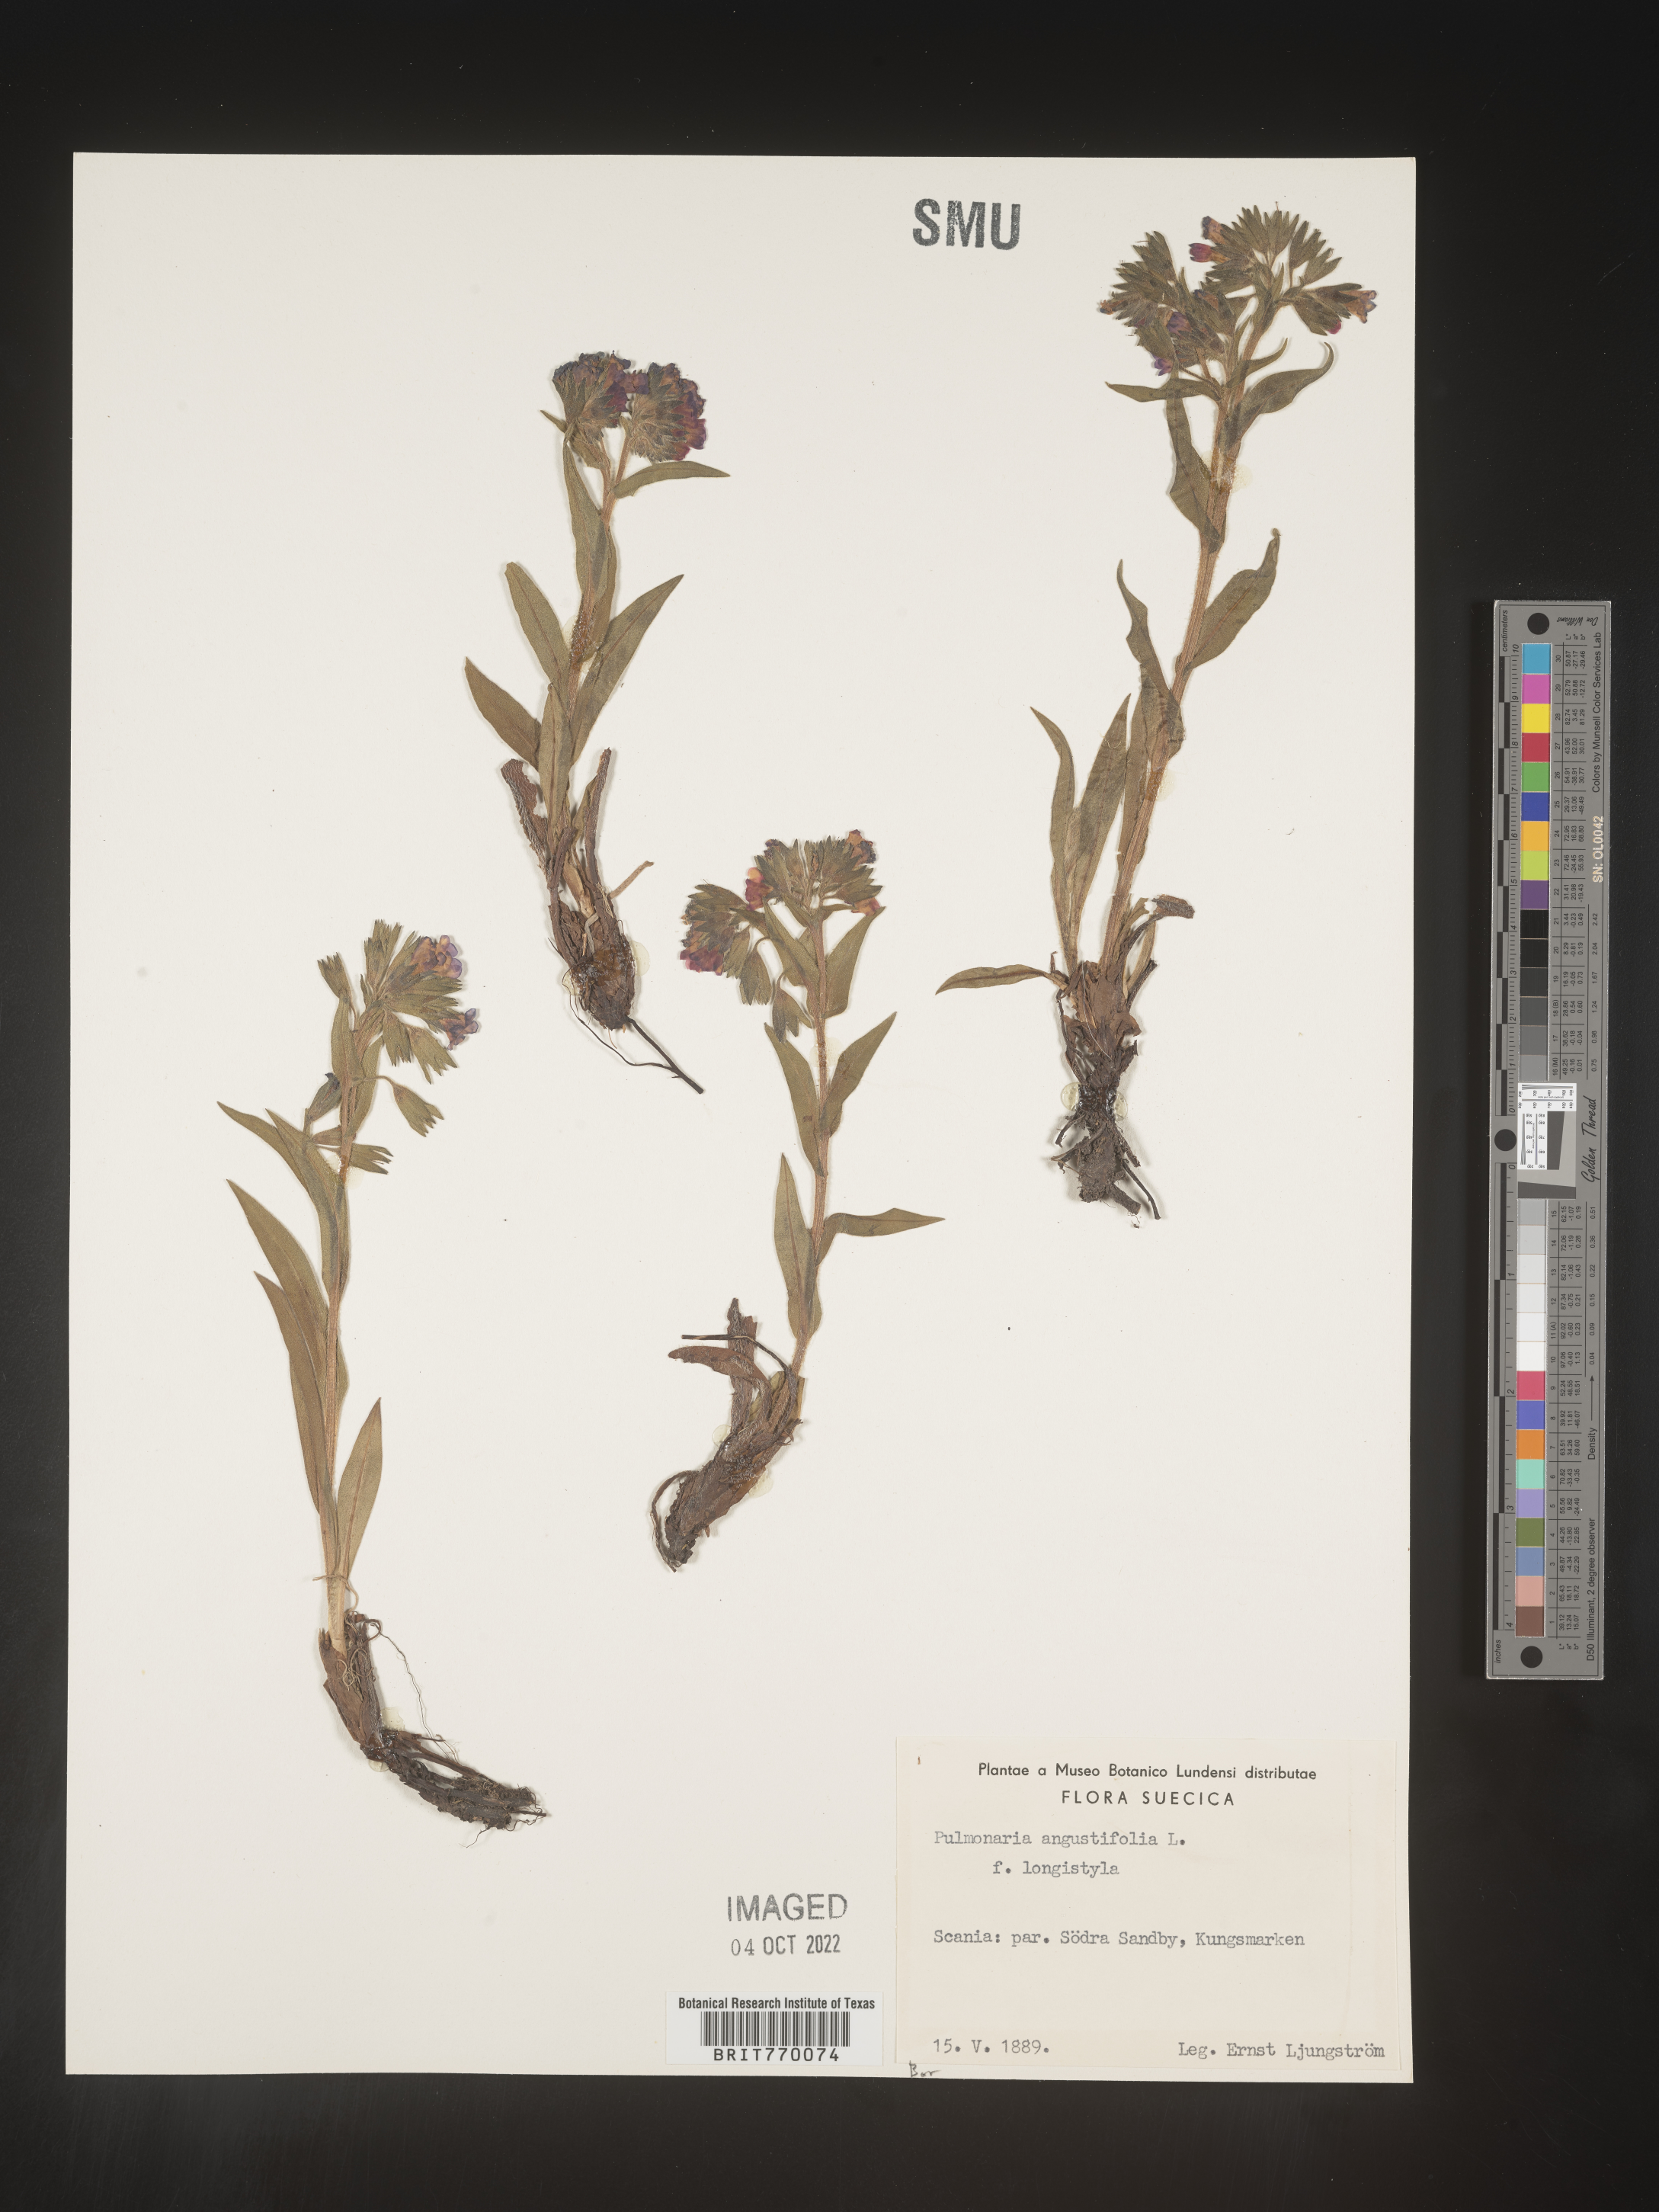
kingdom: Plantae
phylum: Tracheophyta
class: Magnoliopsida
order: Boraginales
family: Boraginaceae
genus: Pulmonaria
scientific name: Pulmonaria
